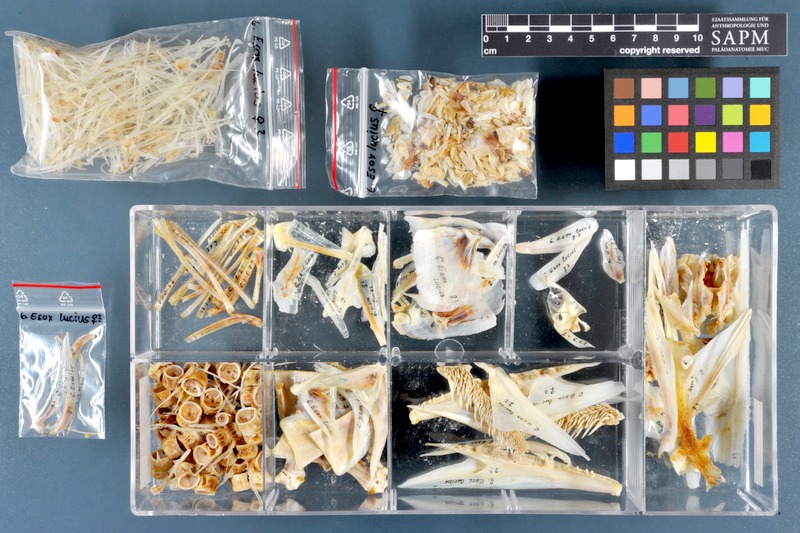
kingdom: Animalia
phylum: Chordata
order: Esociformes
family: Esocidae
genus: Esox
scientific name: Esox lucius
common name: Northern pike
